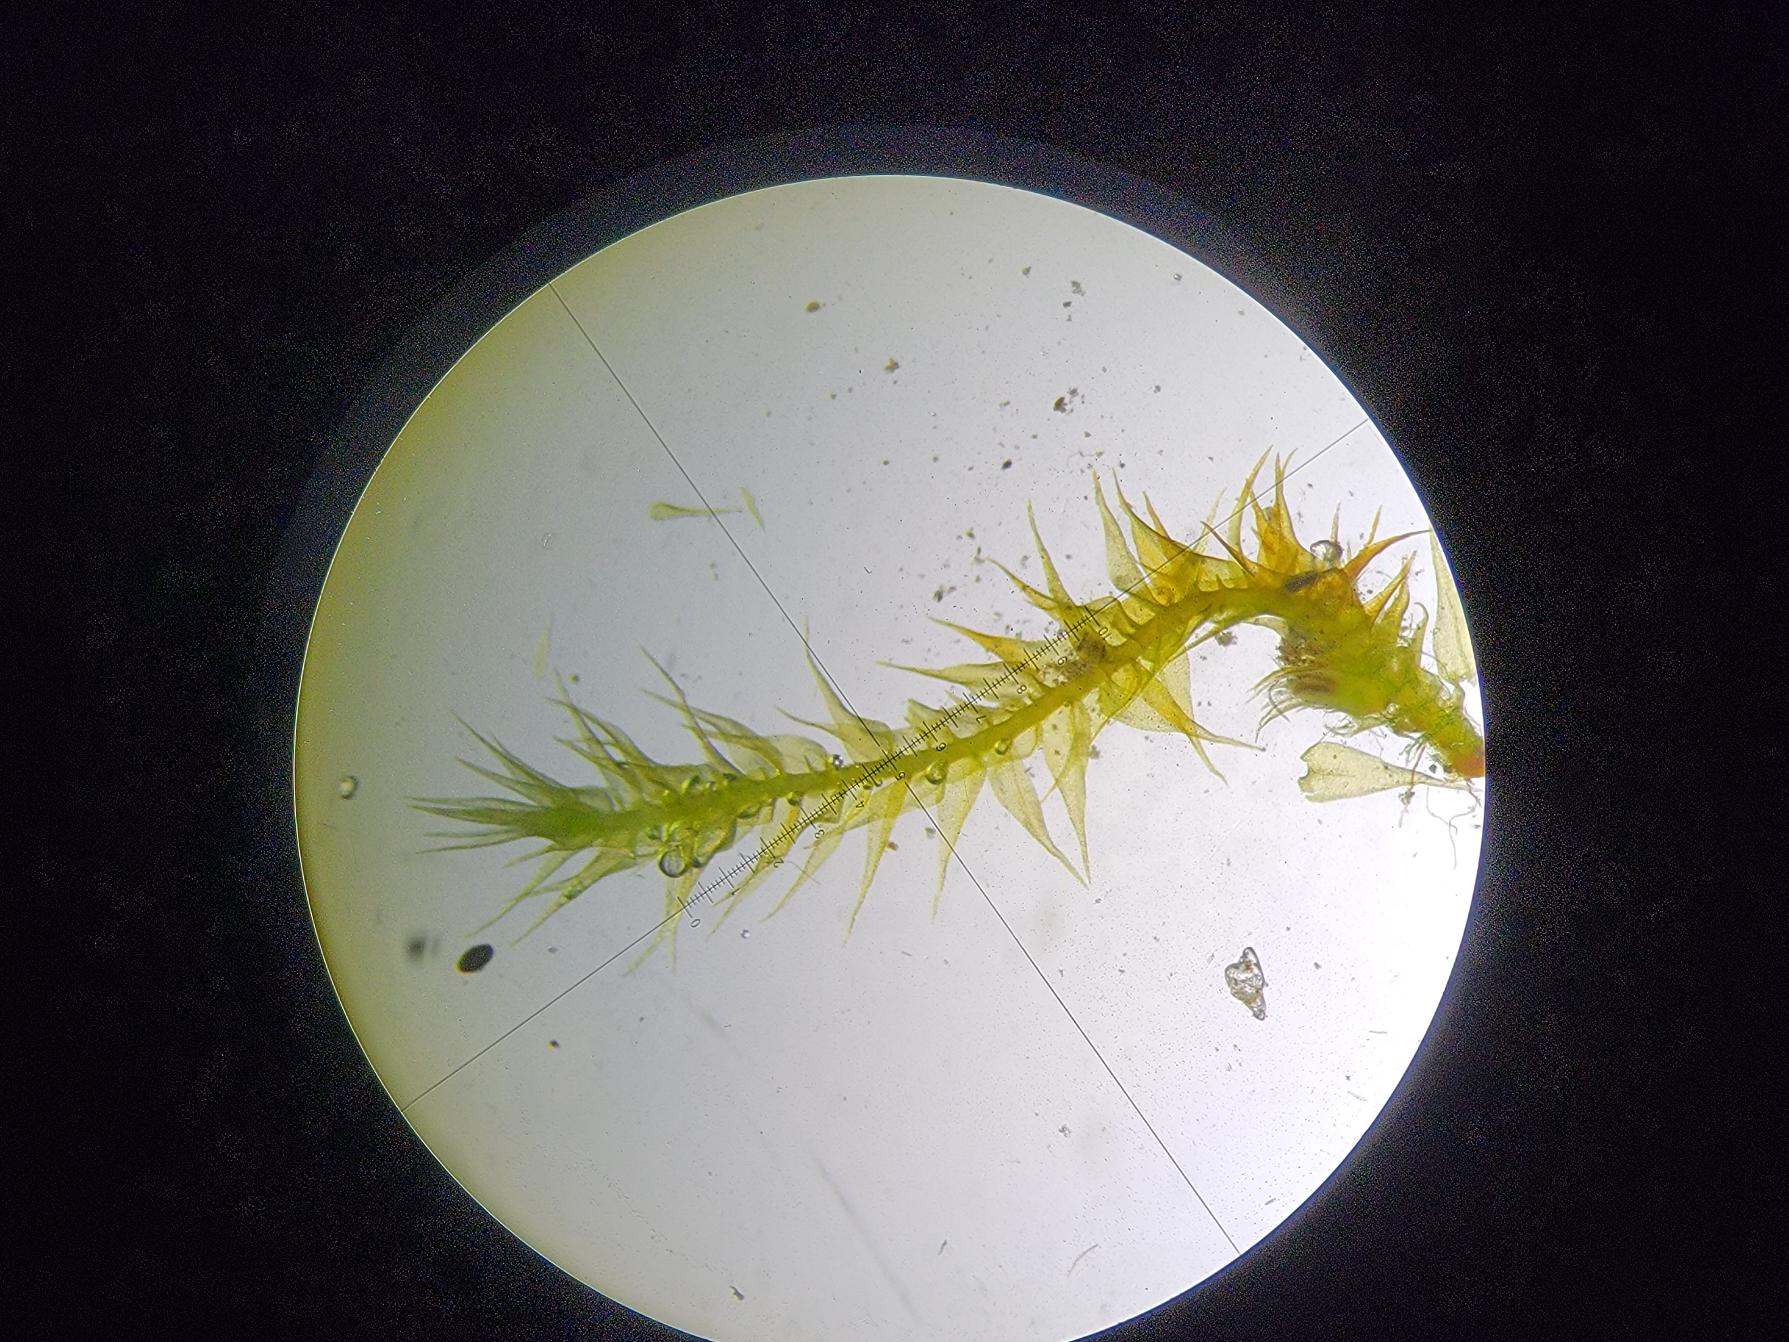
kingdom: Plantae
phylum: Bryophyta
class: Bryopsida
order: Hypnales
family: Amblystegiaceae
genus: Campylium
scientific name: Campylium chrysophyllum
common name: Tør guldstjernemos
